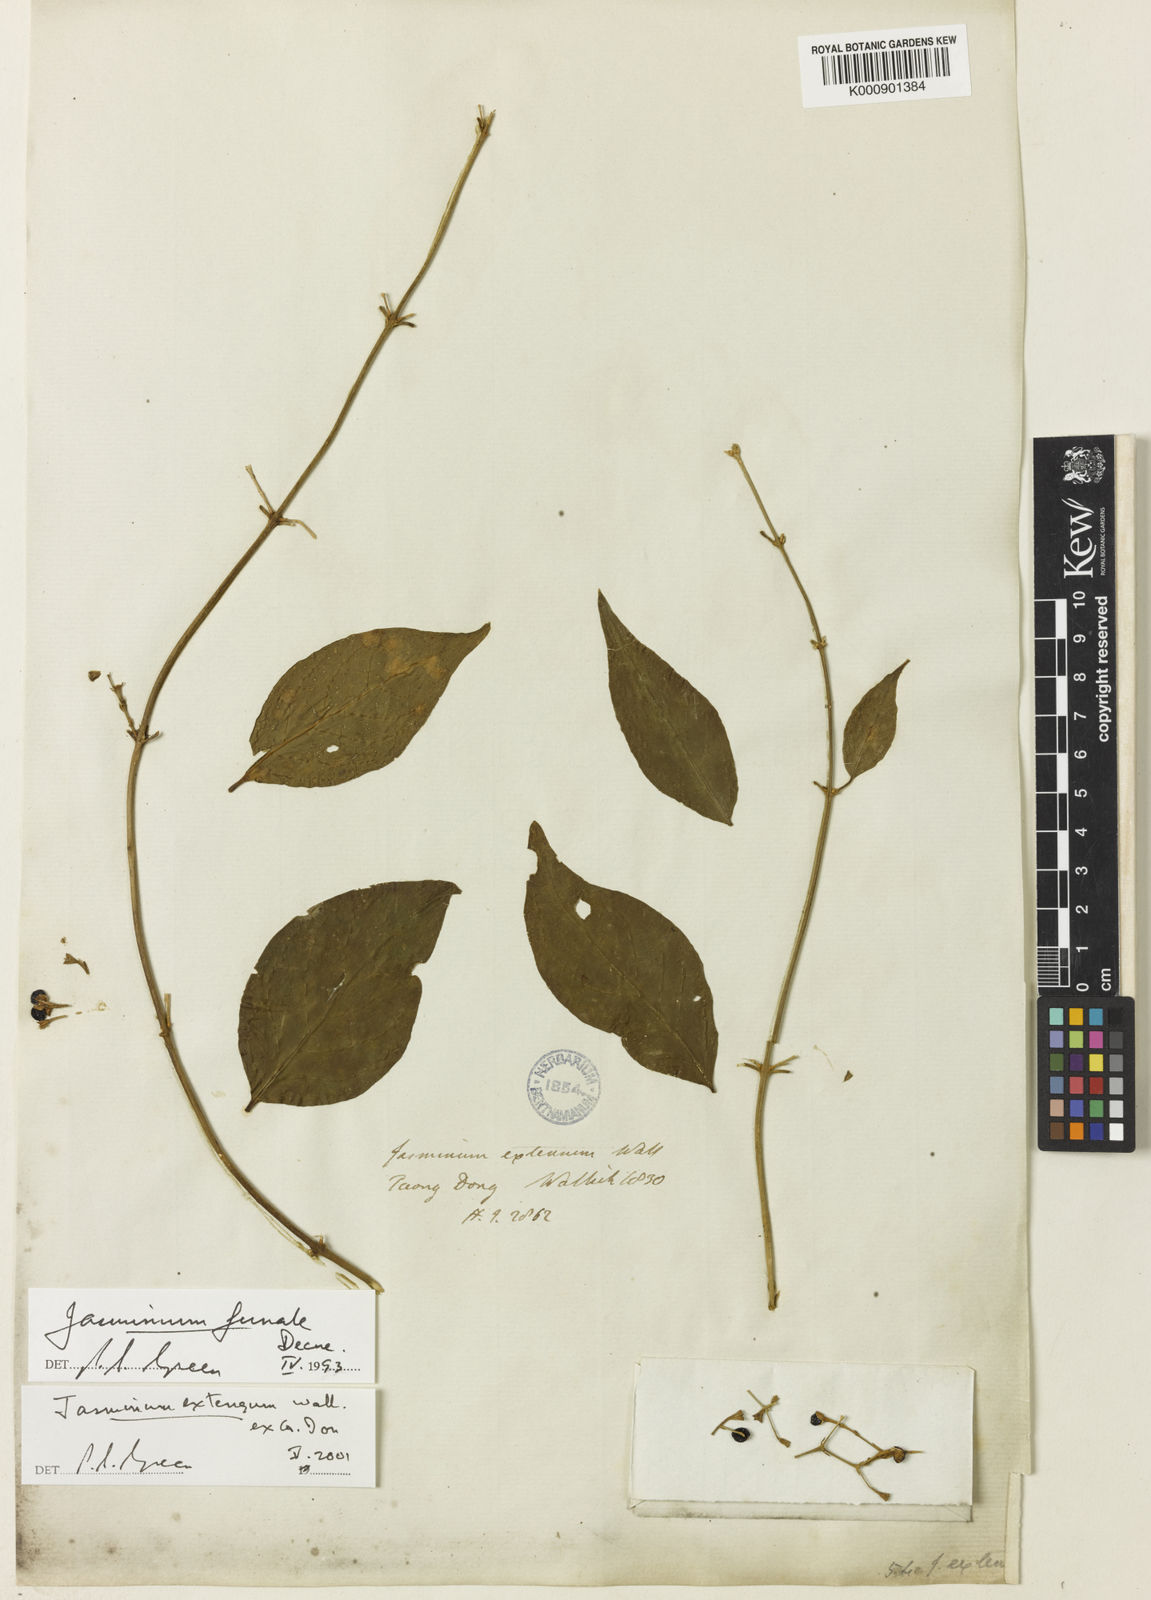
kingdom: Plantae
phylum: Tracheophyta
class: Magnoliopsida
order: Lamiales
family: Oleaceae
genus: Jasminum
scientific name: Jasminum
